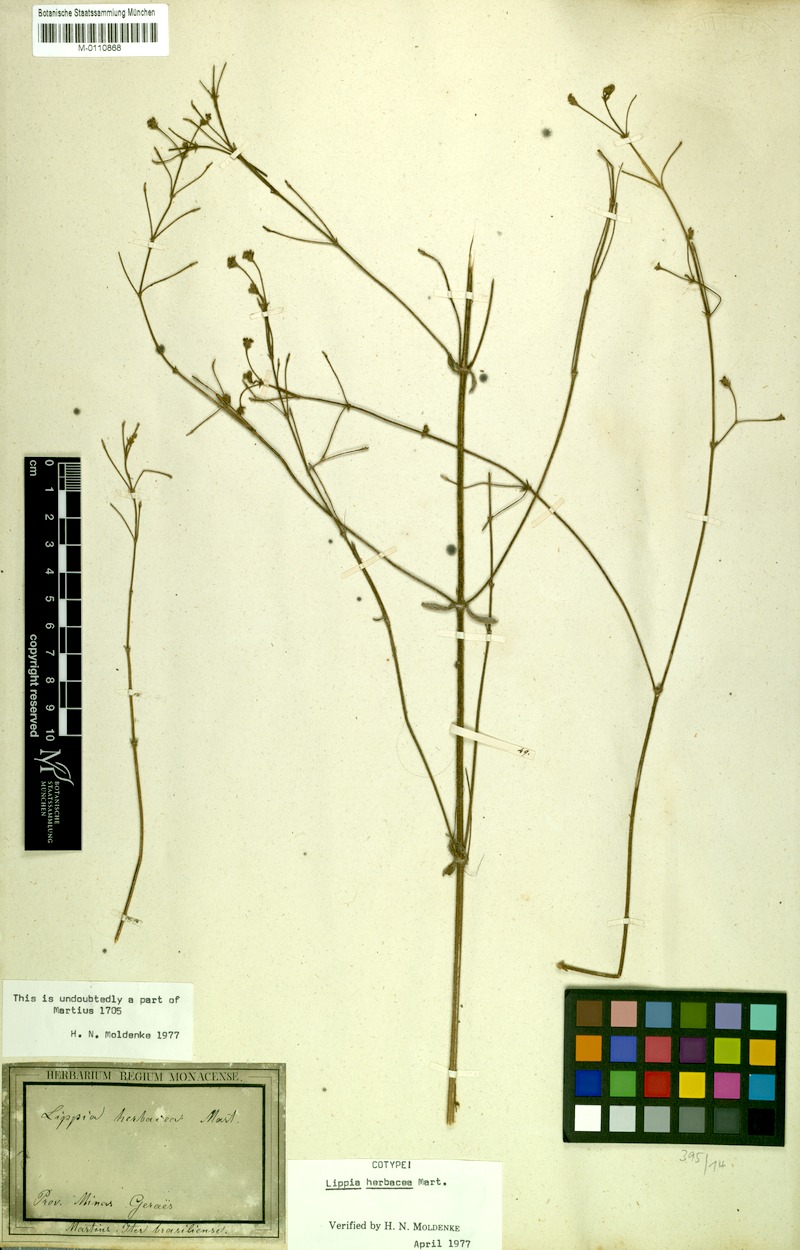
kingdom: Plantae
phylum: Tracheophyta
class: Magnoliopsida
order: Lamiales
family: Verbenaceae
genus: Lippia
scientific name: Lippia herbacea
